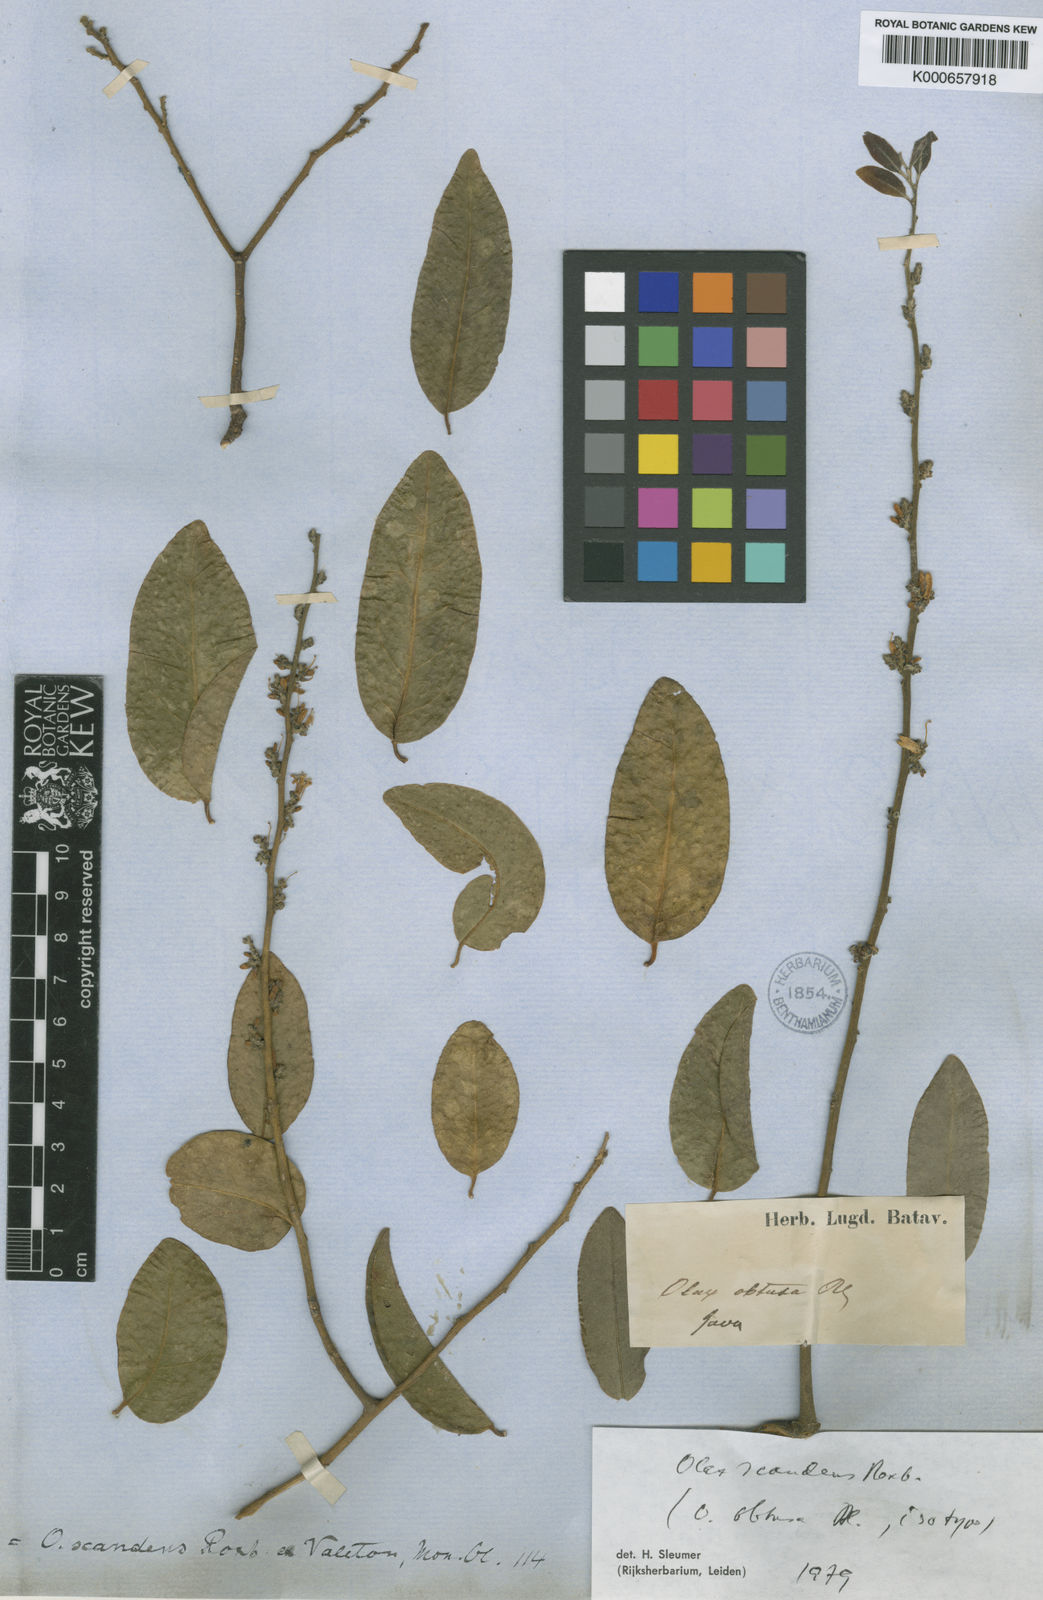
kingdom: Plantae
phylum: Tracheophyta
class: Magnoliopsida
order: Santalales
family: Olacaceae
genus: Olax
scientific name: Olax psittacorum
